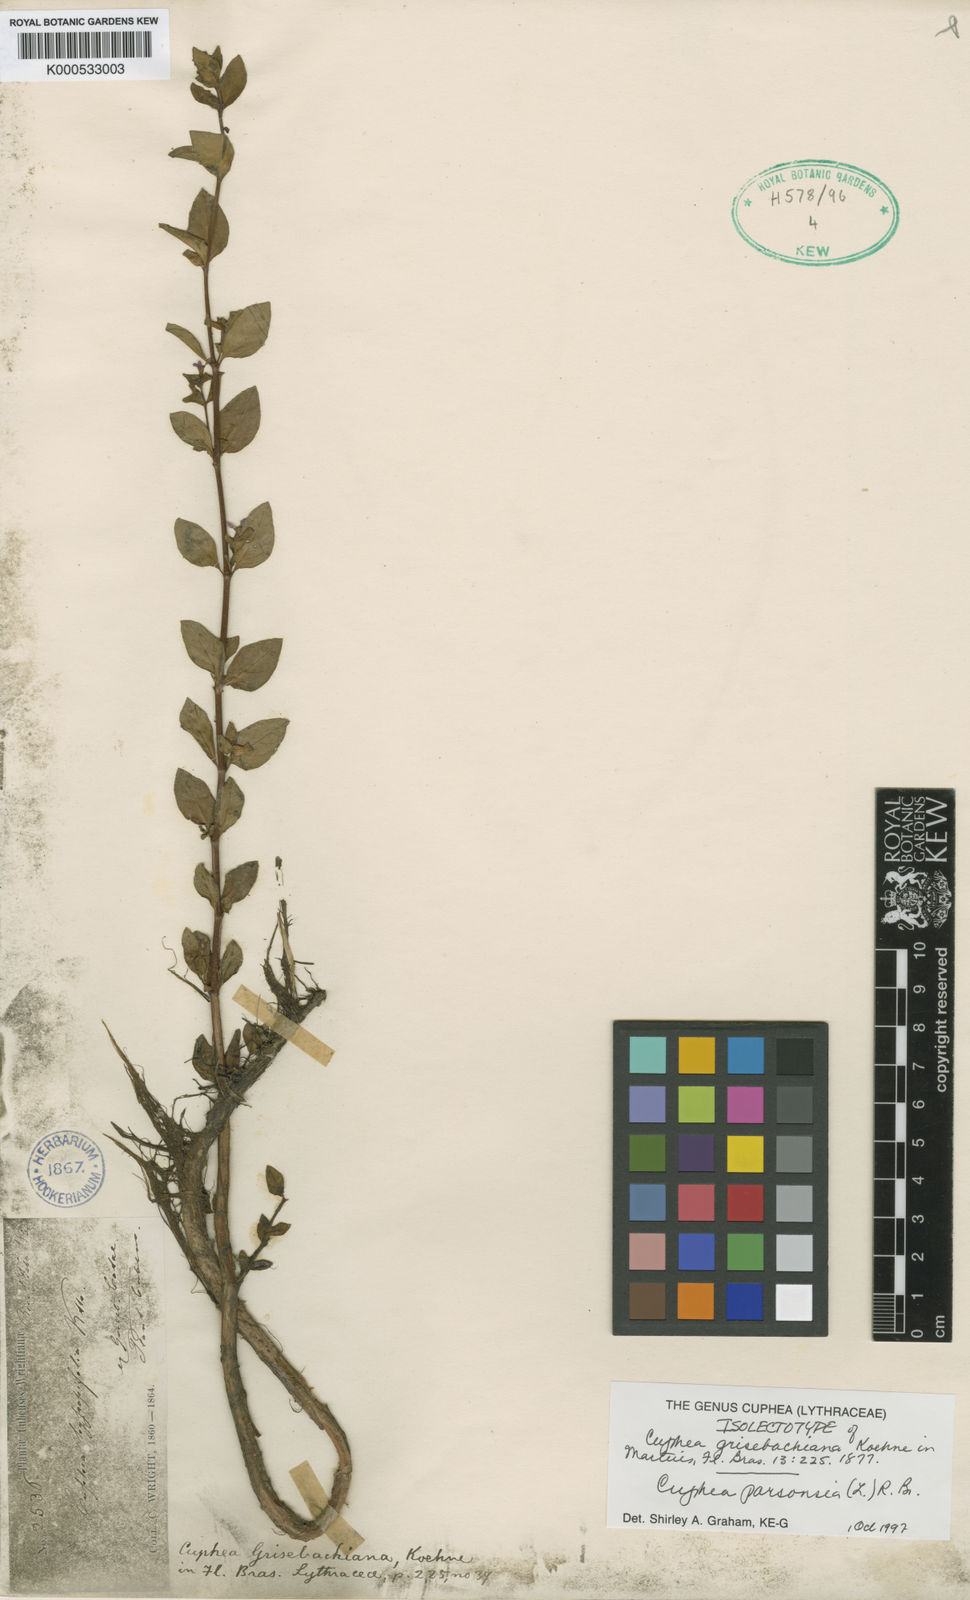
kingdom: Plantae
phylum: Tracheophyta
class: Magnoliopsida
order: Myrtales
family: Lythraceae
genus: Cuphea
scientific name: Cuphea parsonsia
